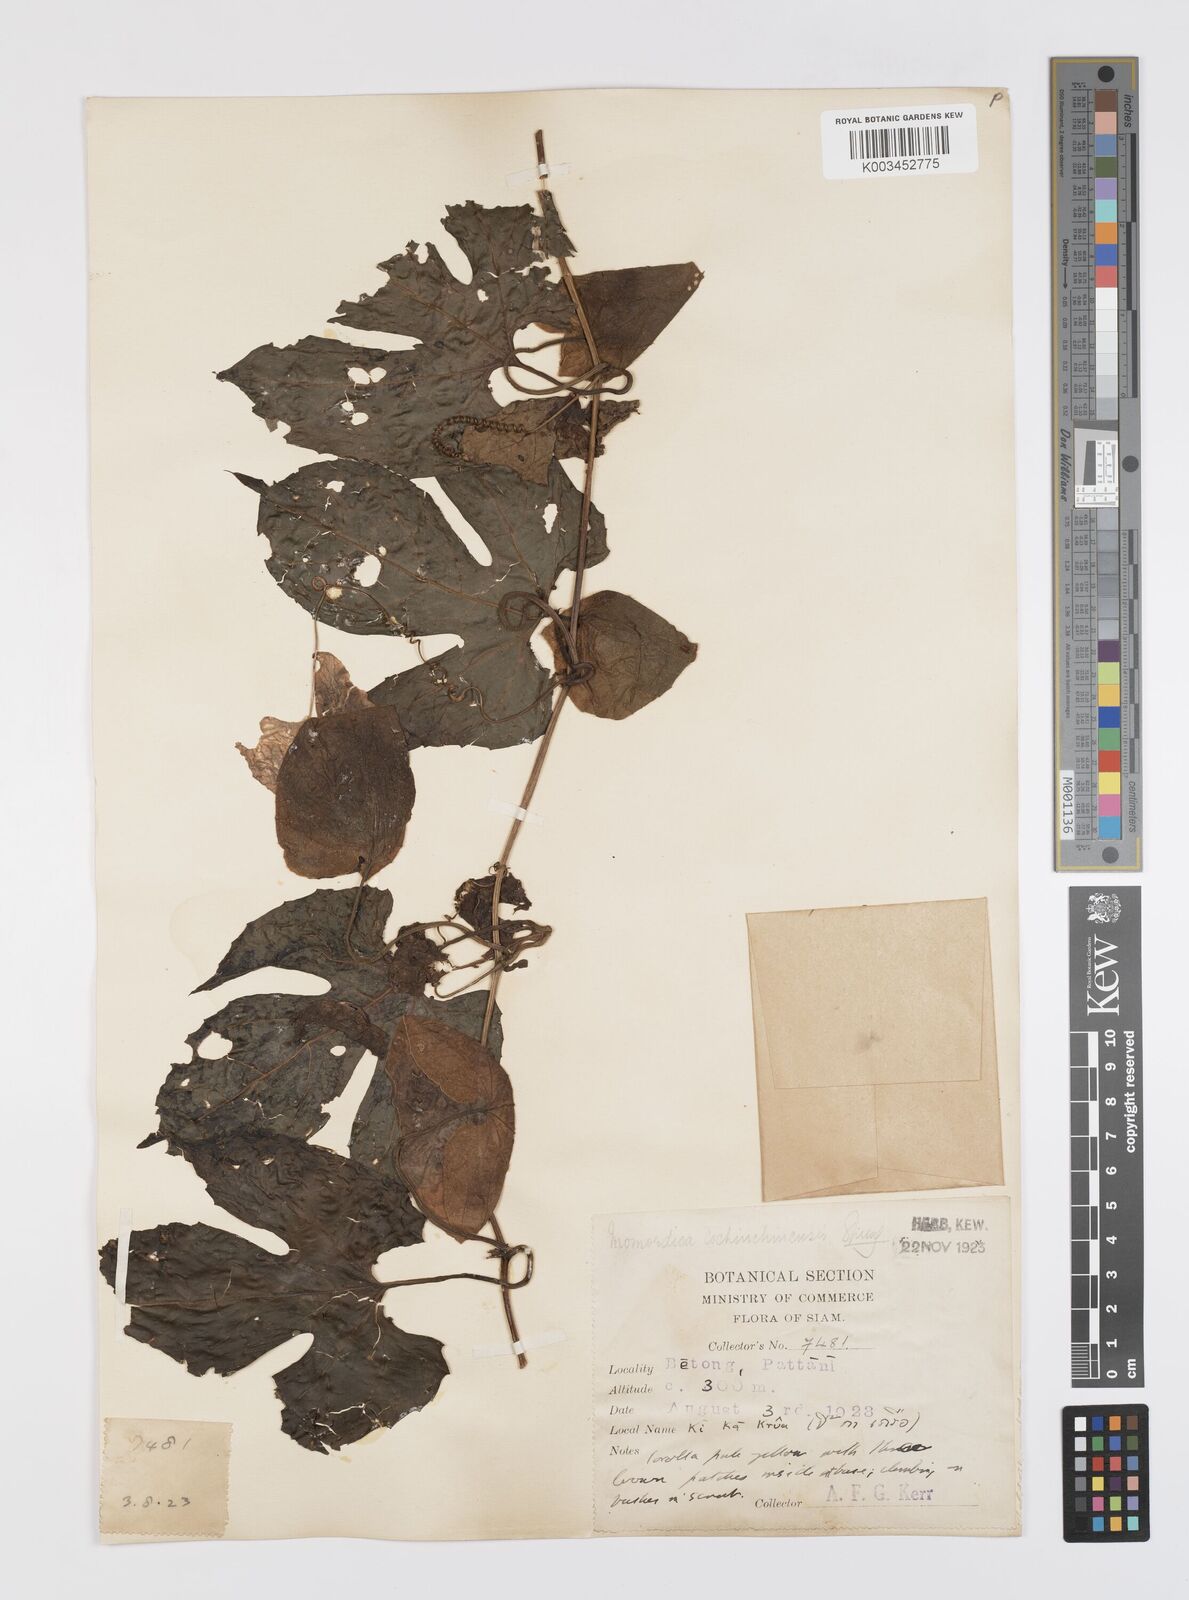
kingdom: Plantae
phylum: Tracheophyta
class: Magnoliopsida
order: Cucurbitales
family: Cucurbitaceae
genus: Momordica
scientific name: Momordica cochinchinensis
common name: Chinese bitter-cucumber
